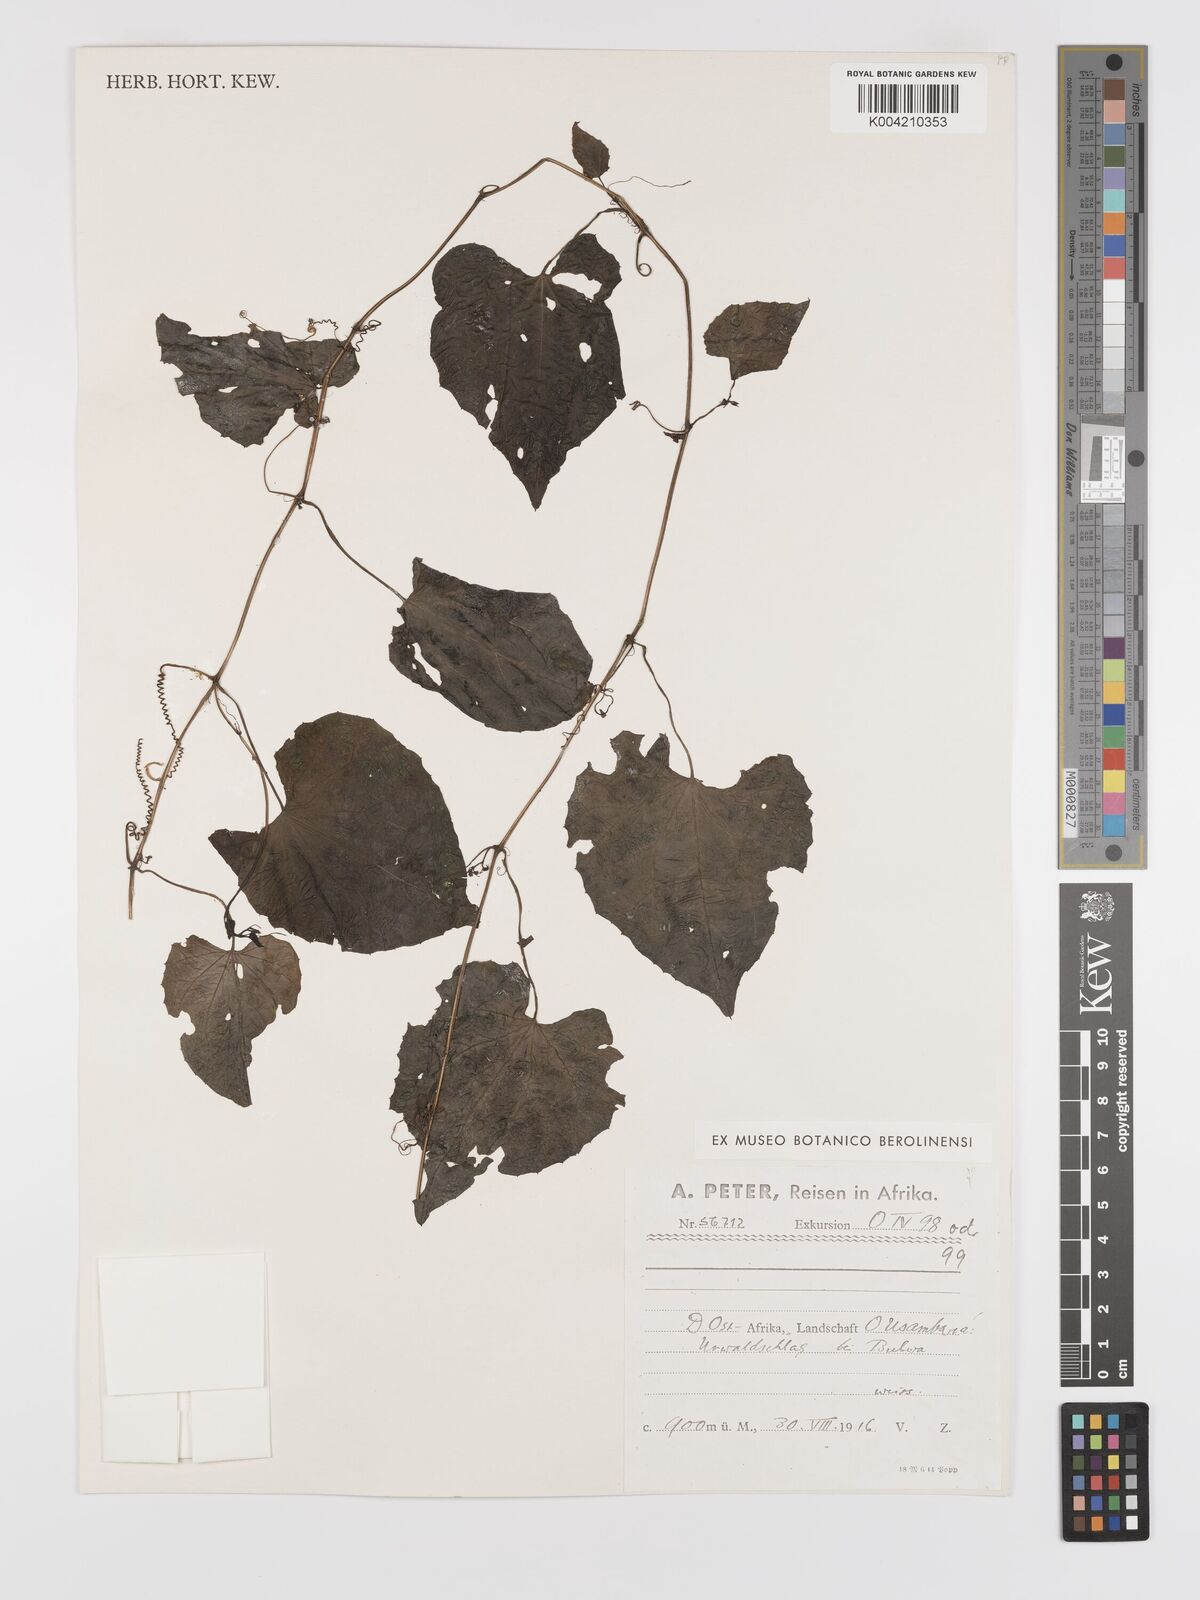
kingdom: Plantae
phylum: Tracheophyta
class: Magnoliopsida
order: Cucurbitales
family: Cucurbitaceae
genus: Zehneria
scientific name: Zehneria emirnensis
